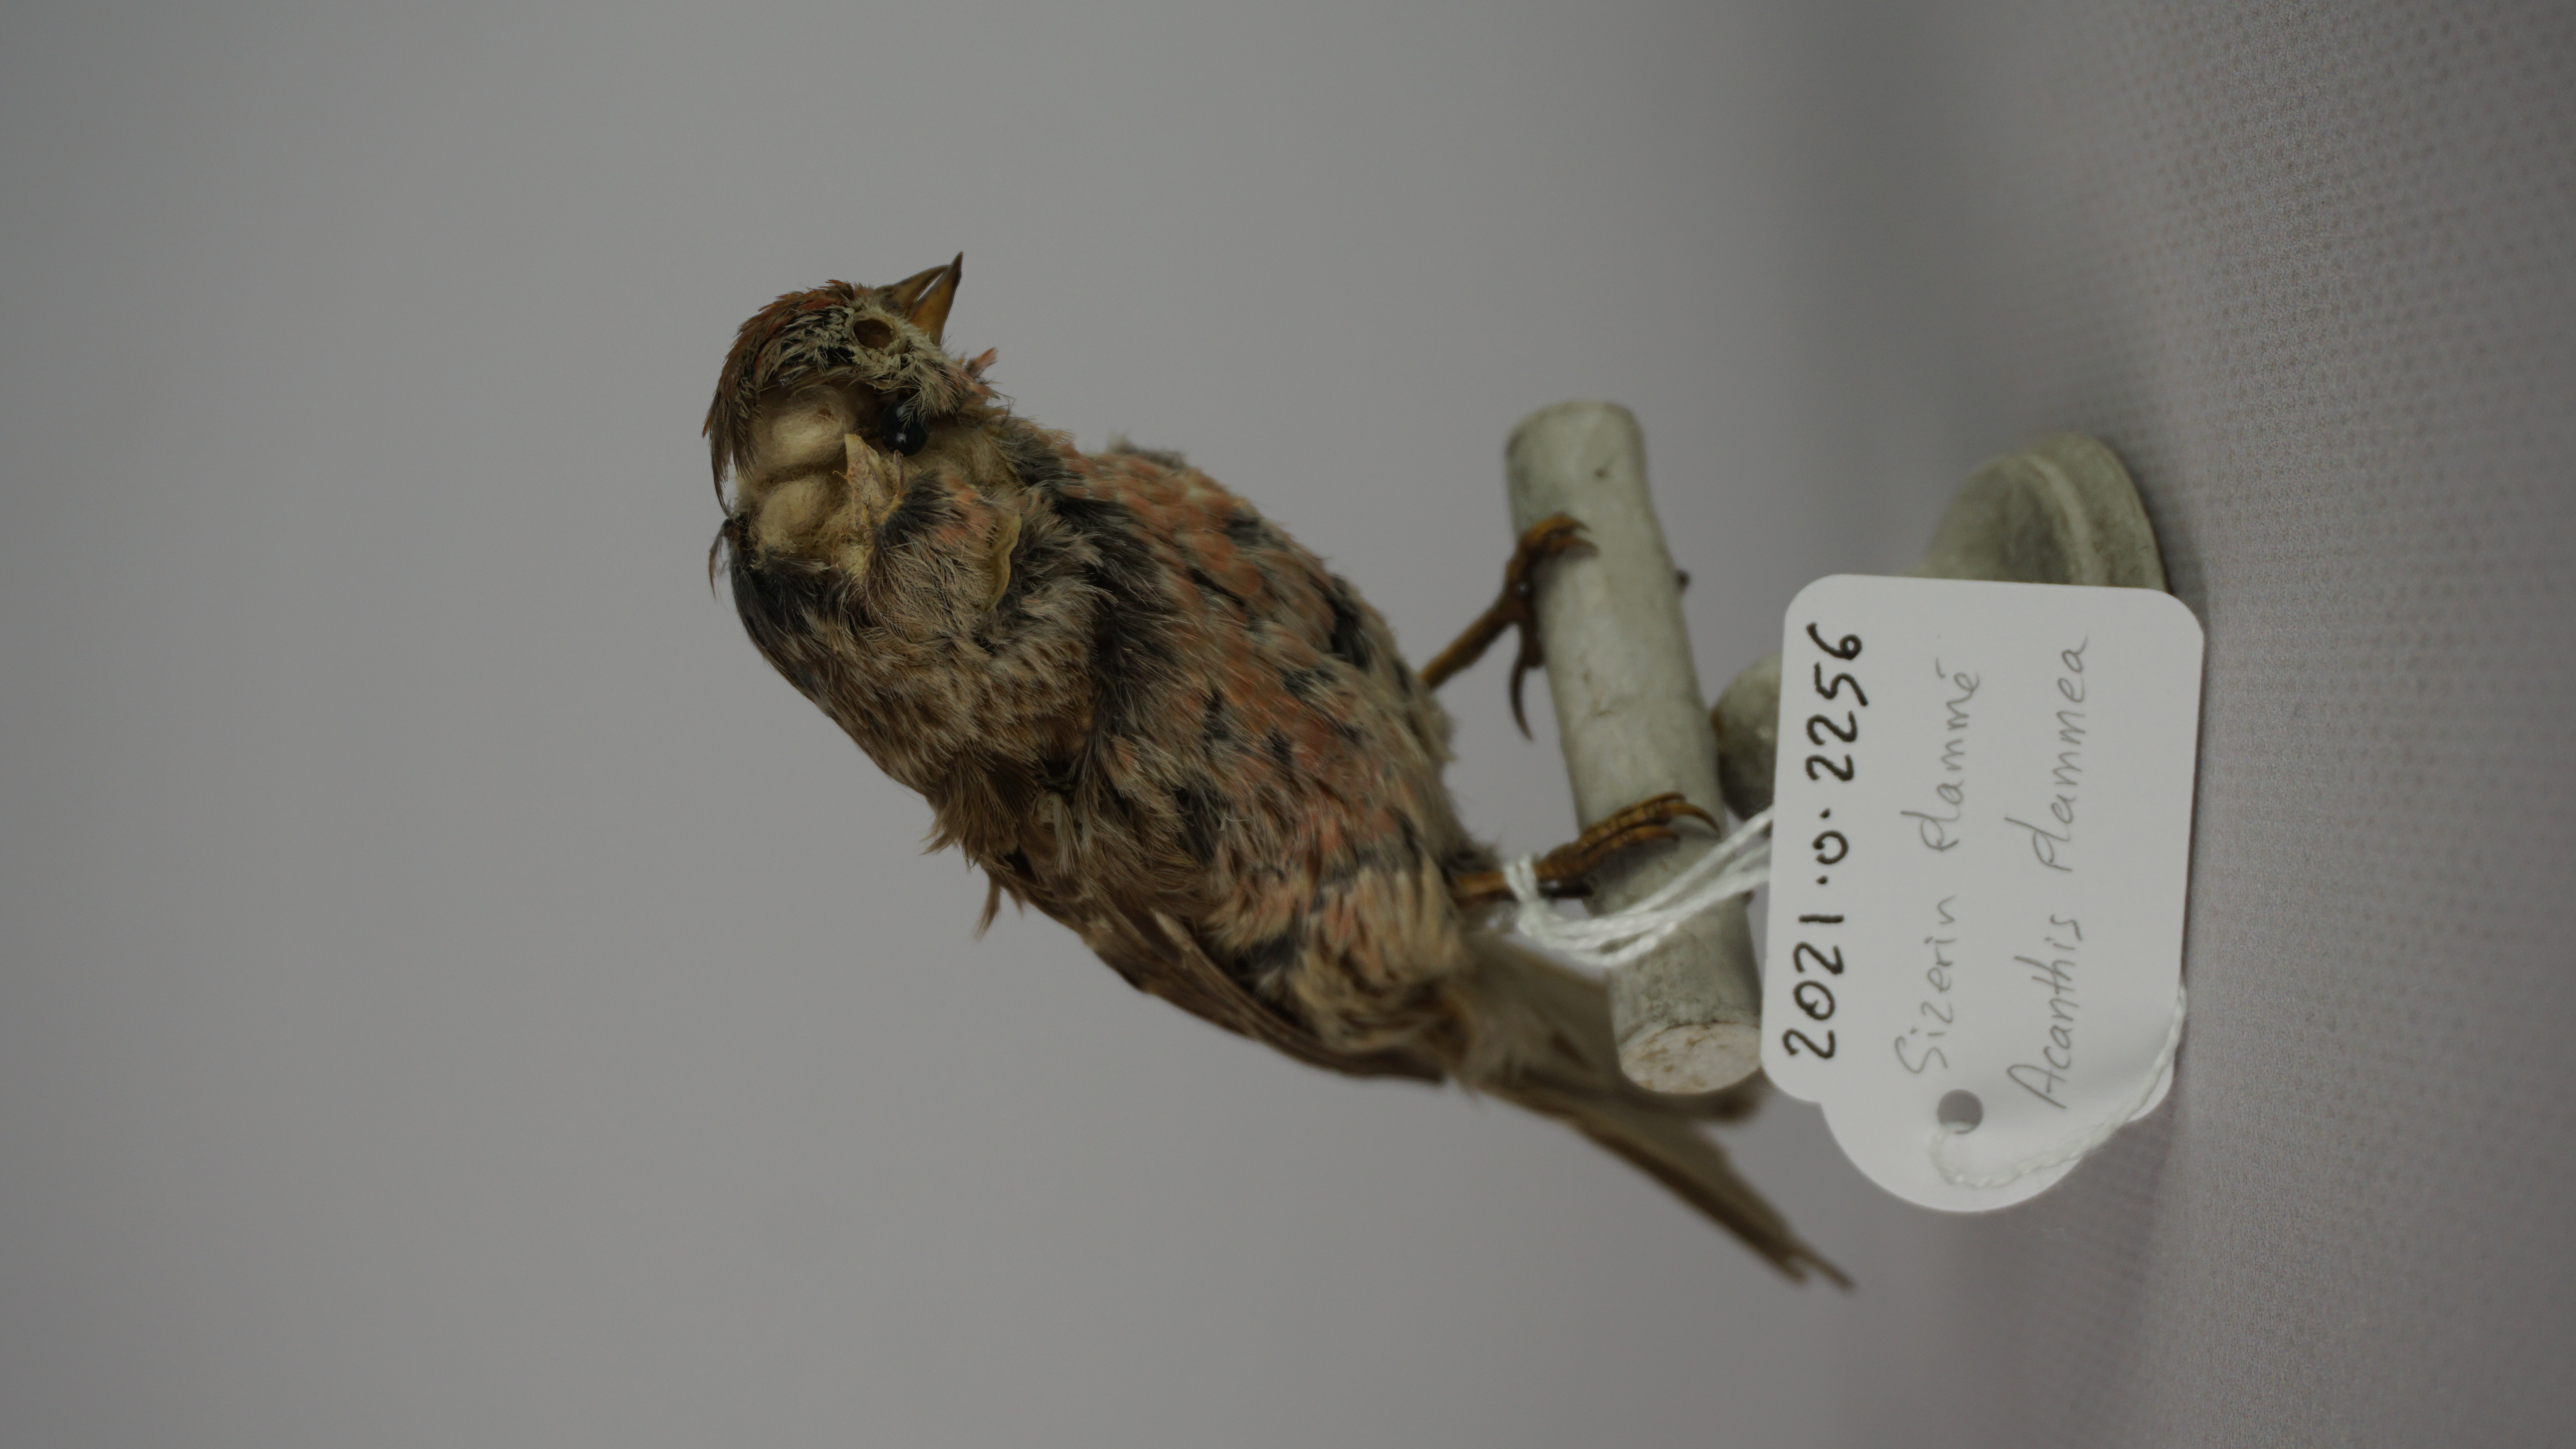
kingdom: Animalia
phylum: Chordata
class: Aves
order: Passeriformes
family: Fringillidae
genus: Acanthis
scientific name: Acanthis flammea
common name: Common redpoll
